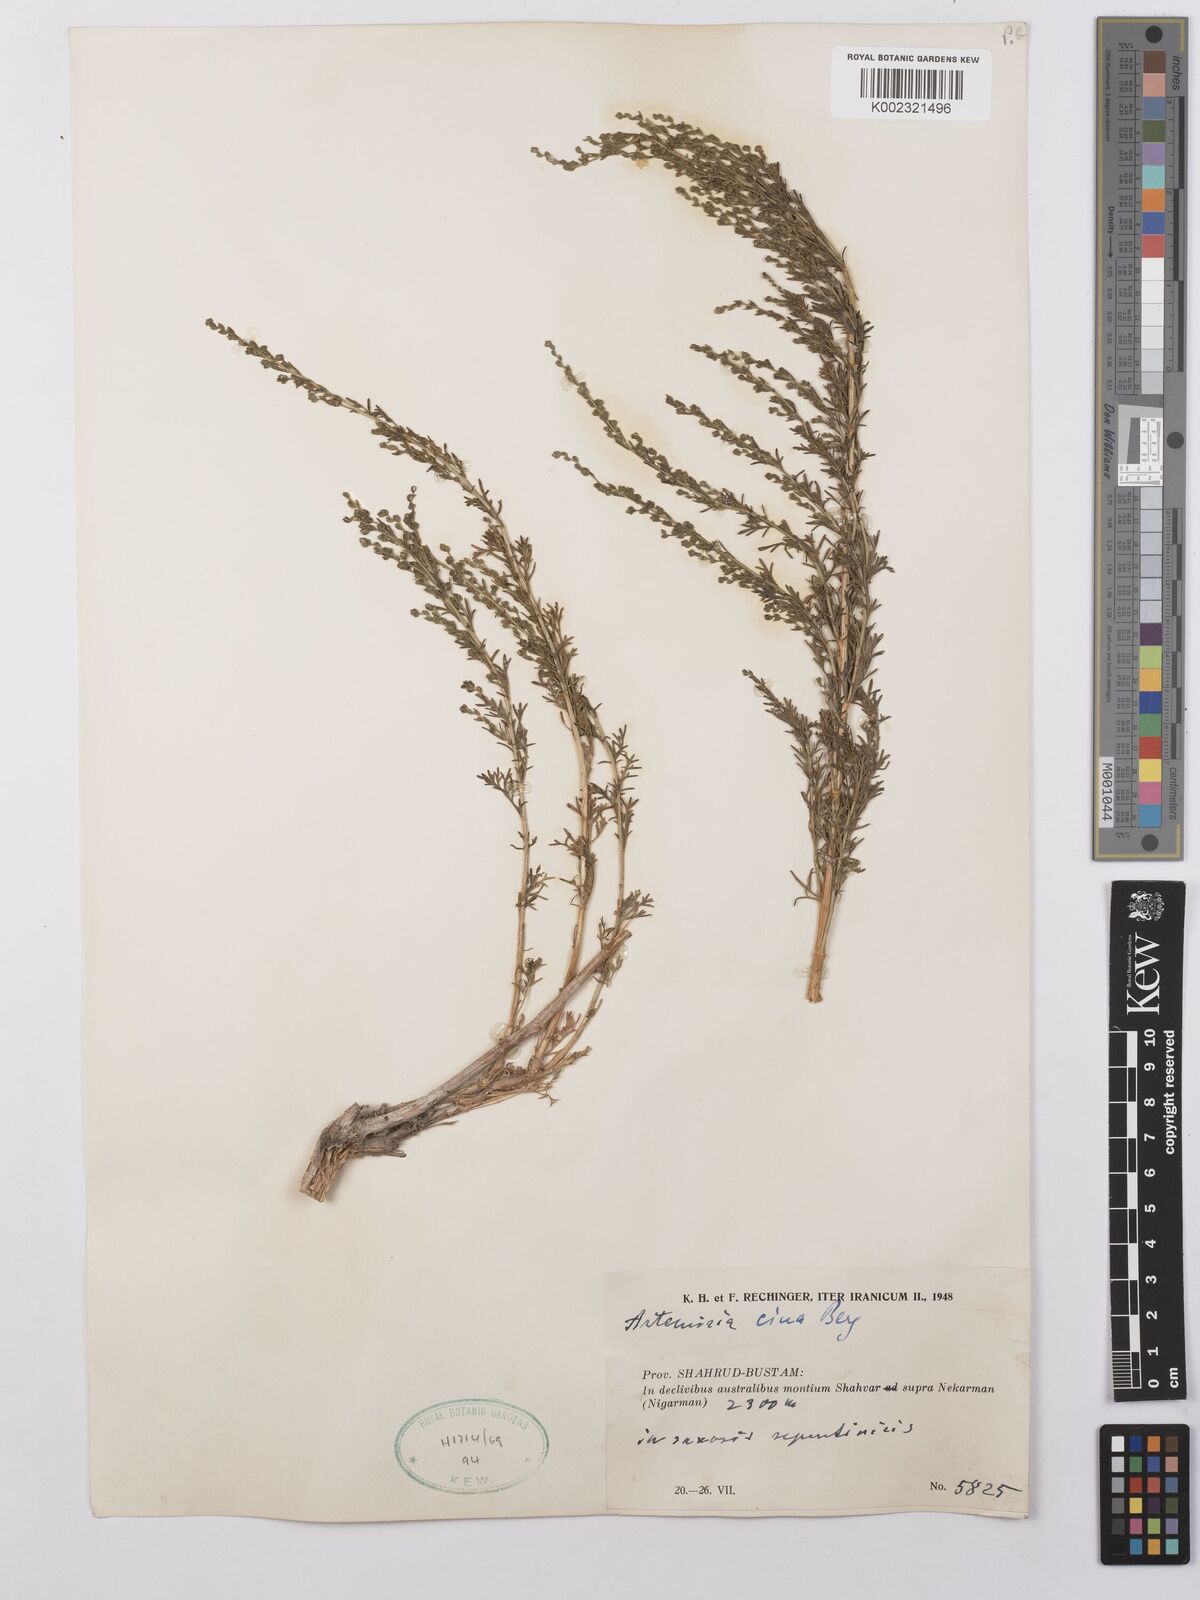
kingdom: Plantae
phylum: Tracheophyta
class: Magnoliopsida
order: Asterales
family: Asteraceae
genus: Artemisia
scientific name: Artemisia cina
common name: Levant wormseed
